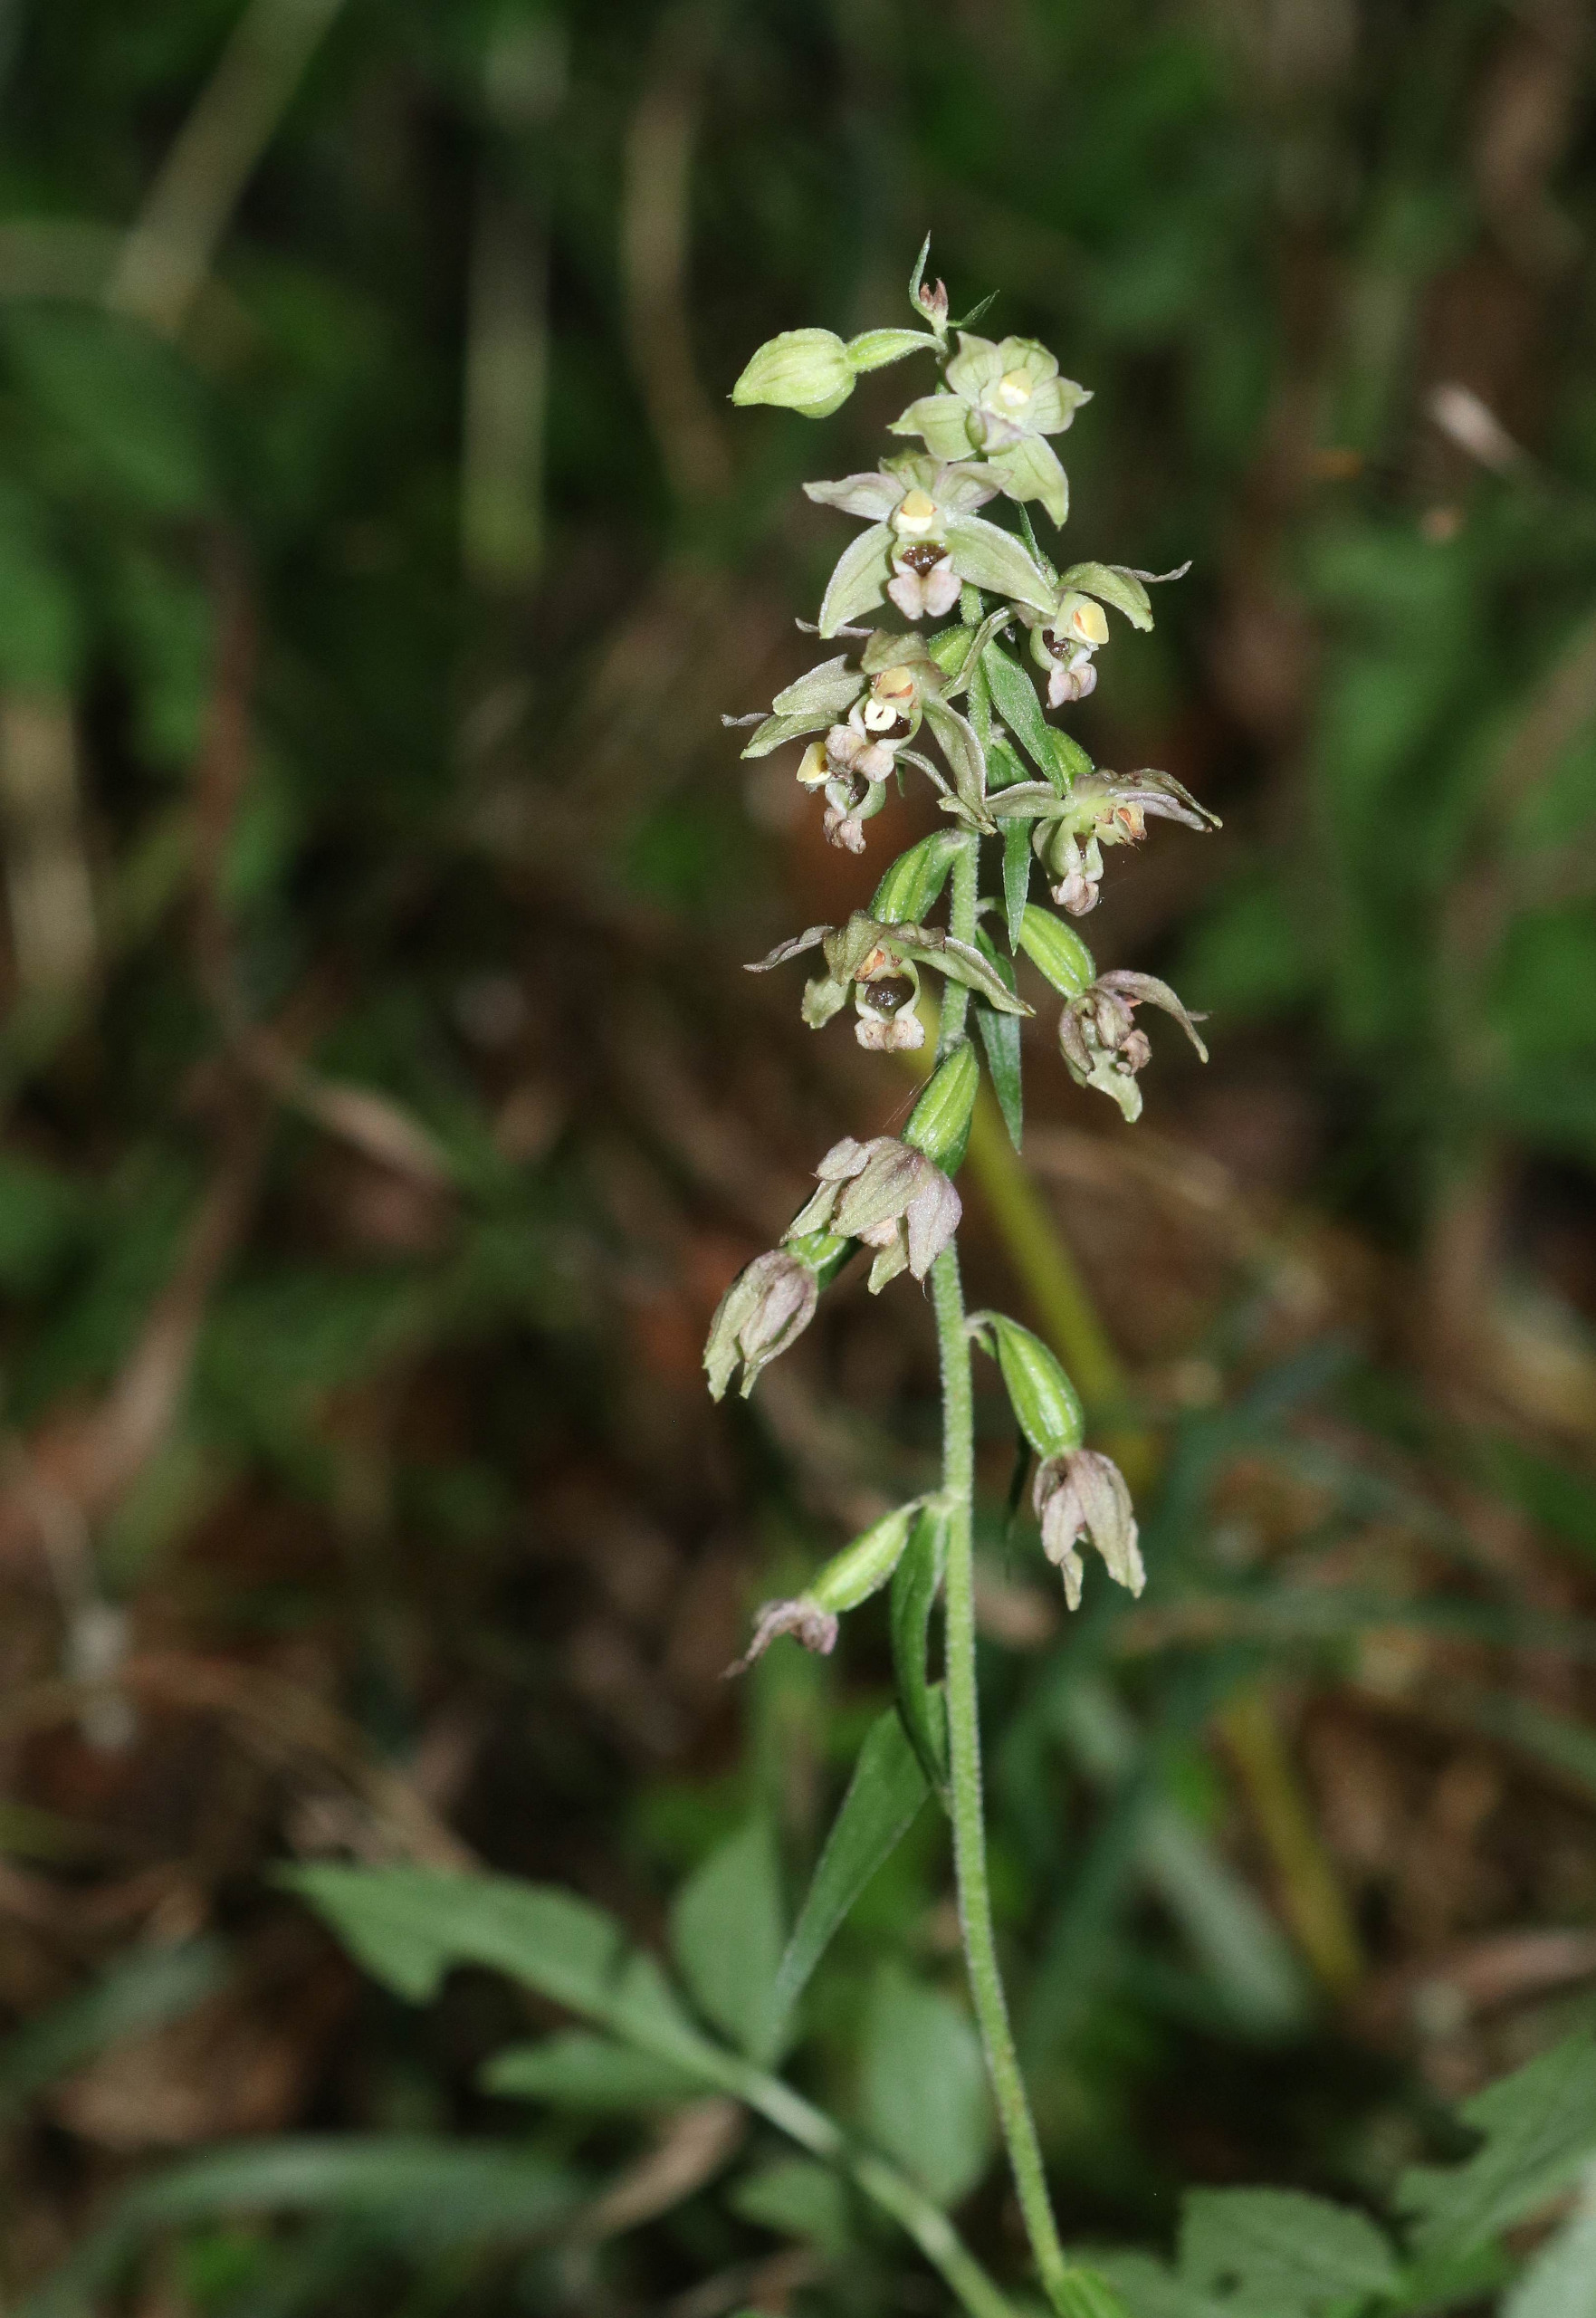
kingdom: Plantae
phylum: Tracheophyta
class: Liliopsida
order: Asparagales
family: Orchidaceae
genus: Epipactis
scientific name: Epipactis helleborine
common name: Skov-hullæbe
